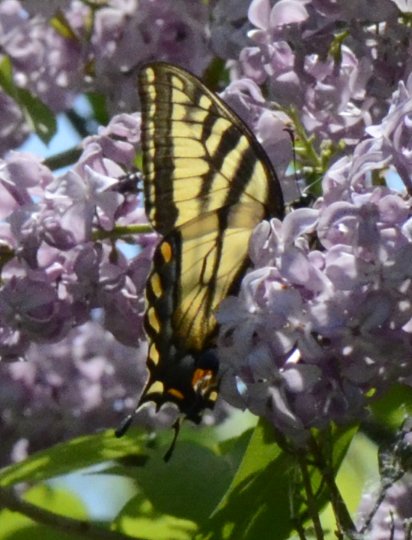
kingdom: Animalia
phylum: Arthropoda
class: Insecta
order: Lepidoptera
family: Papilionidae
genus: Pterourus
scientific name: Pterourus canadensis
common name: Canadian Tiger Swallowtail
